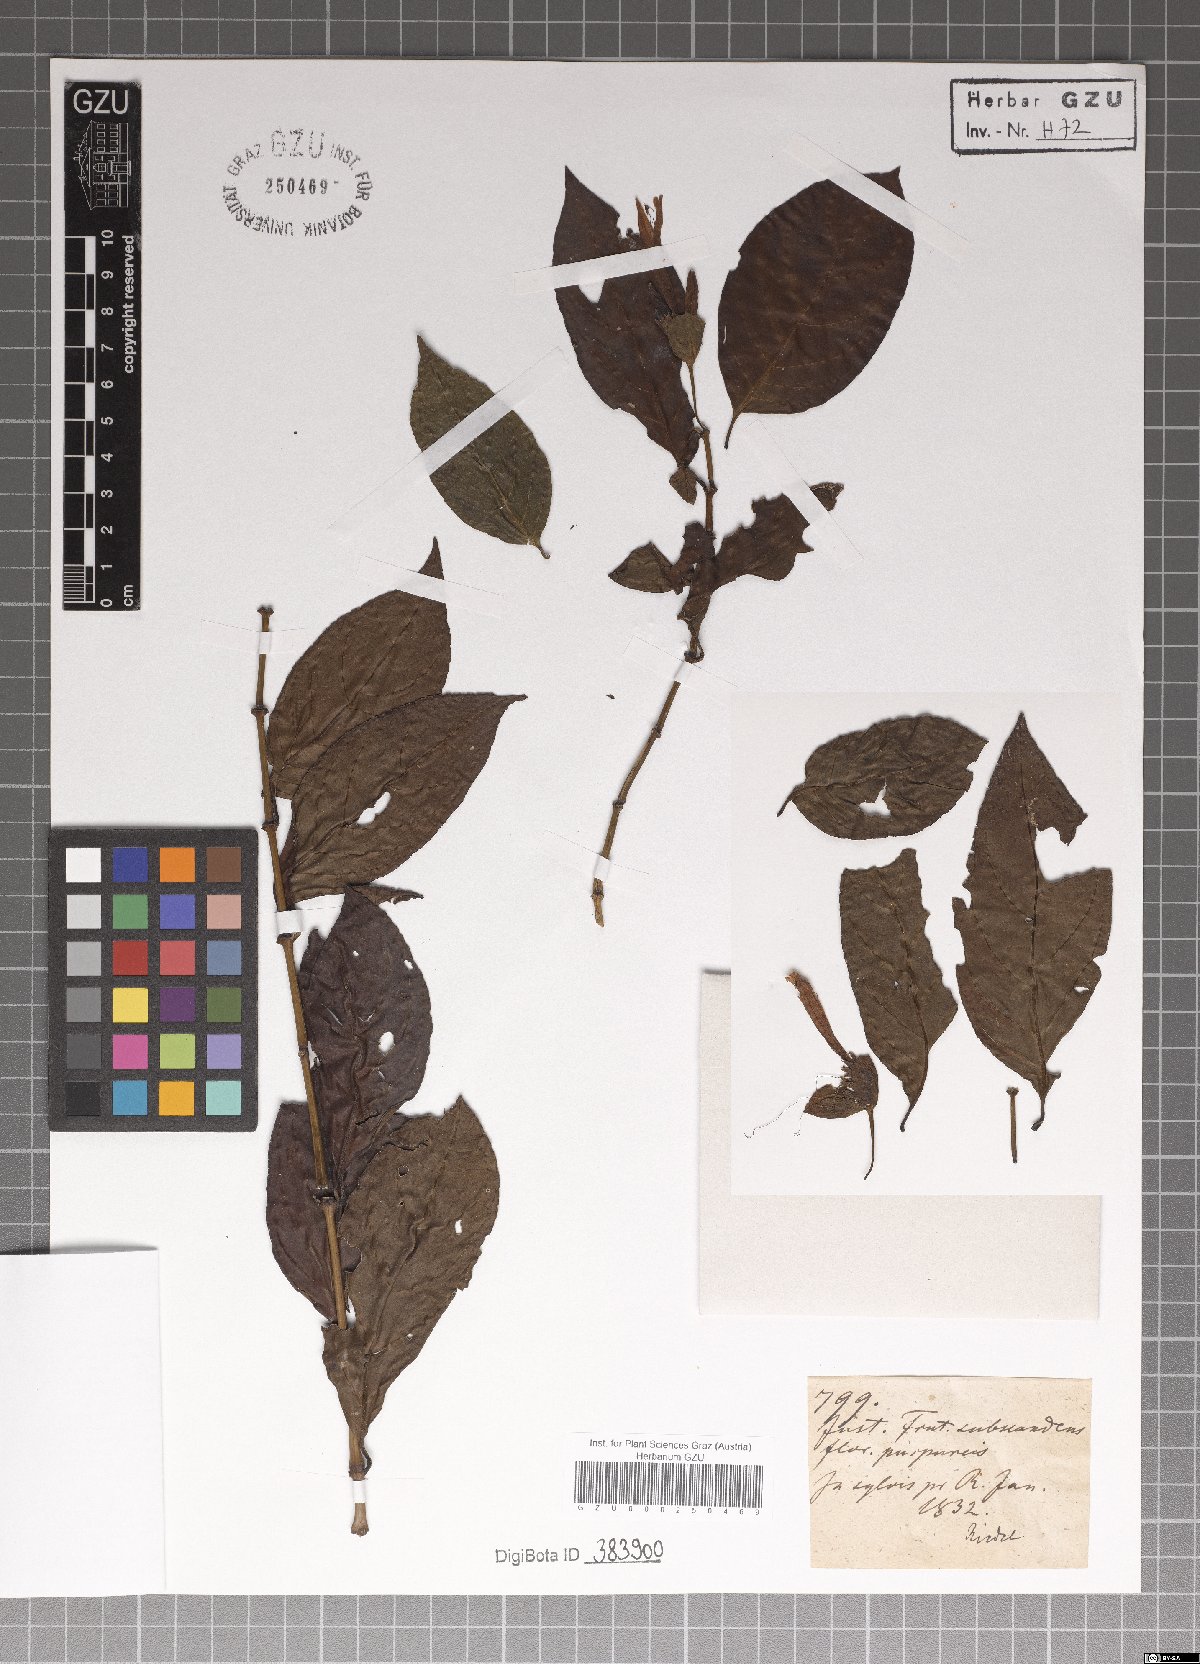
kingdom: Plantae
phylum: Tracheophyta
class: Magnoliopsida
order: Lamiales
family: Acanthaceae
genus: Justicia
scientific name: Justicia
